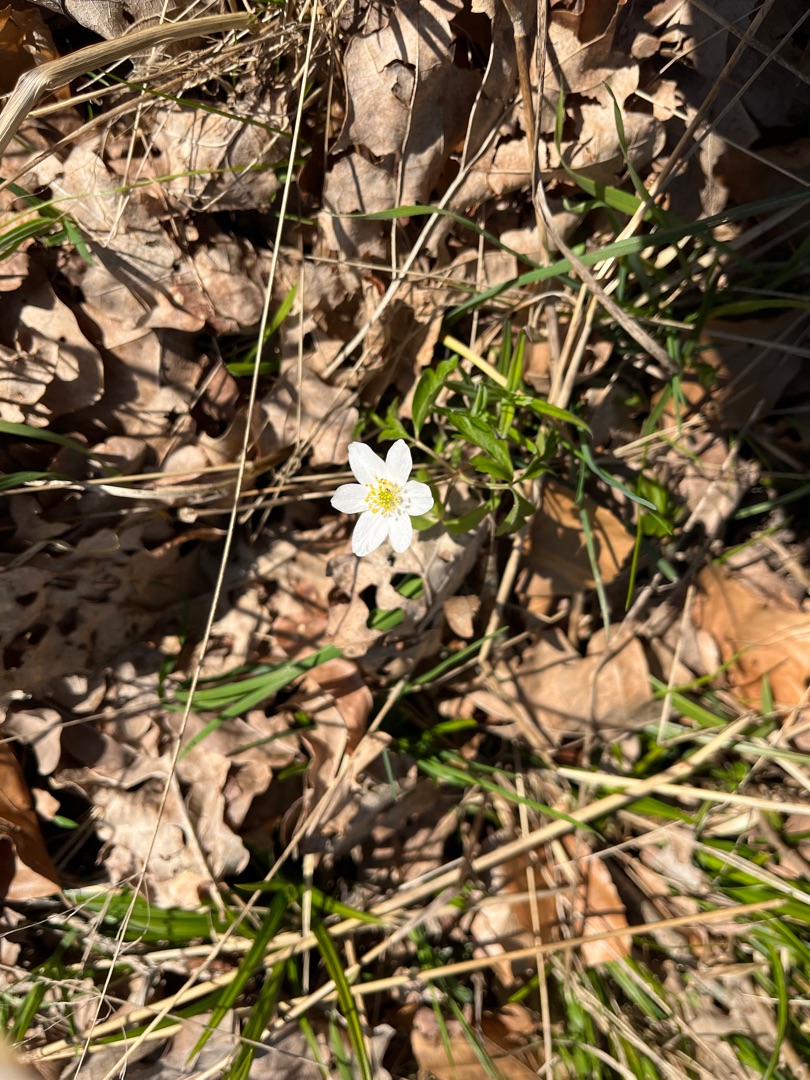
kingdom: Plantae
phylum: Tracheophyta
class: Magnoliopsida
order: Ranunculales
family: Ranunculaceae
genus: Anemone
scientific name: Anemone nemorosa
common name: Hvid anemone
